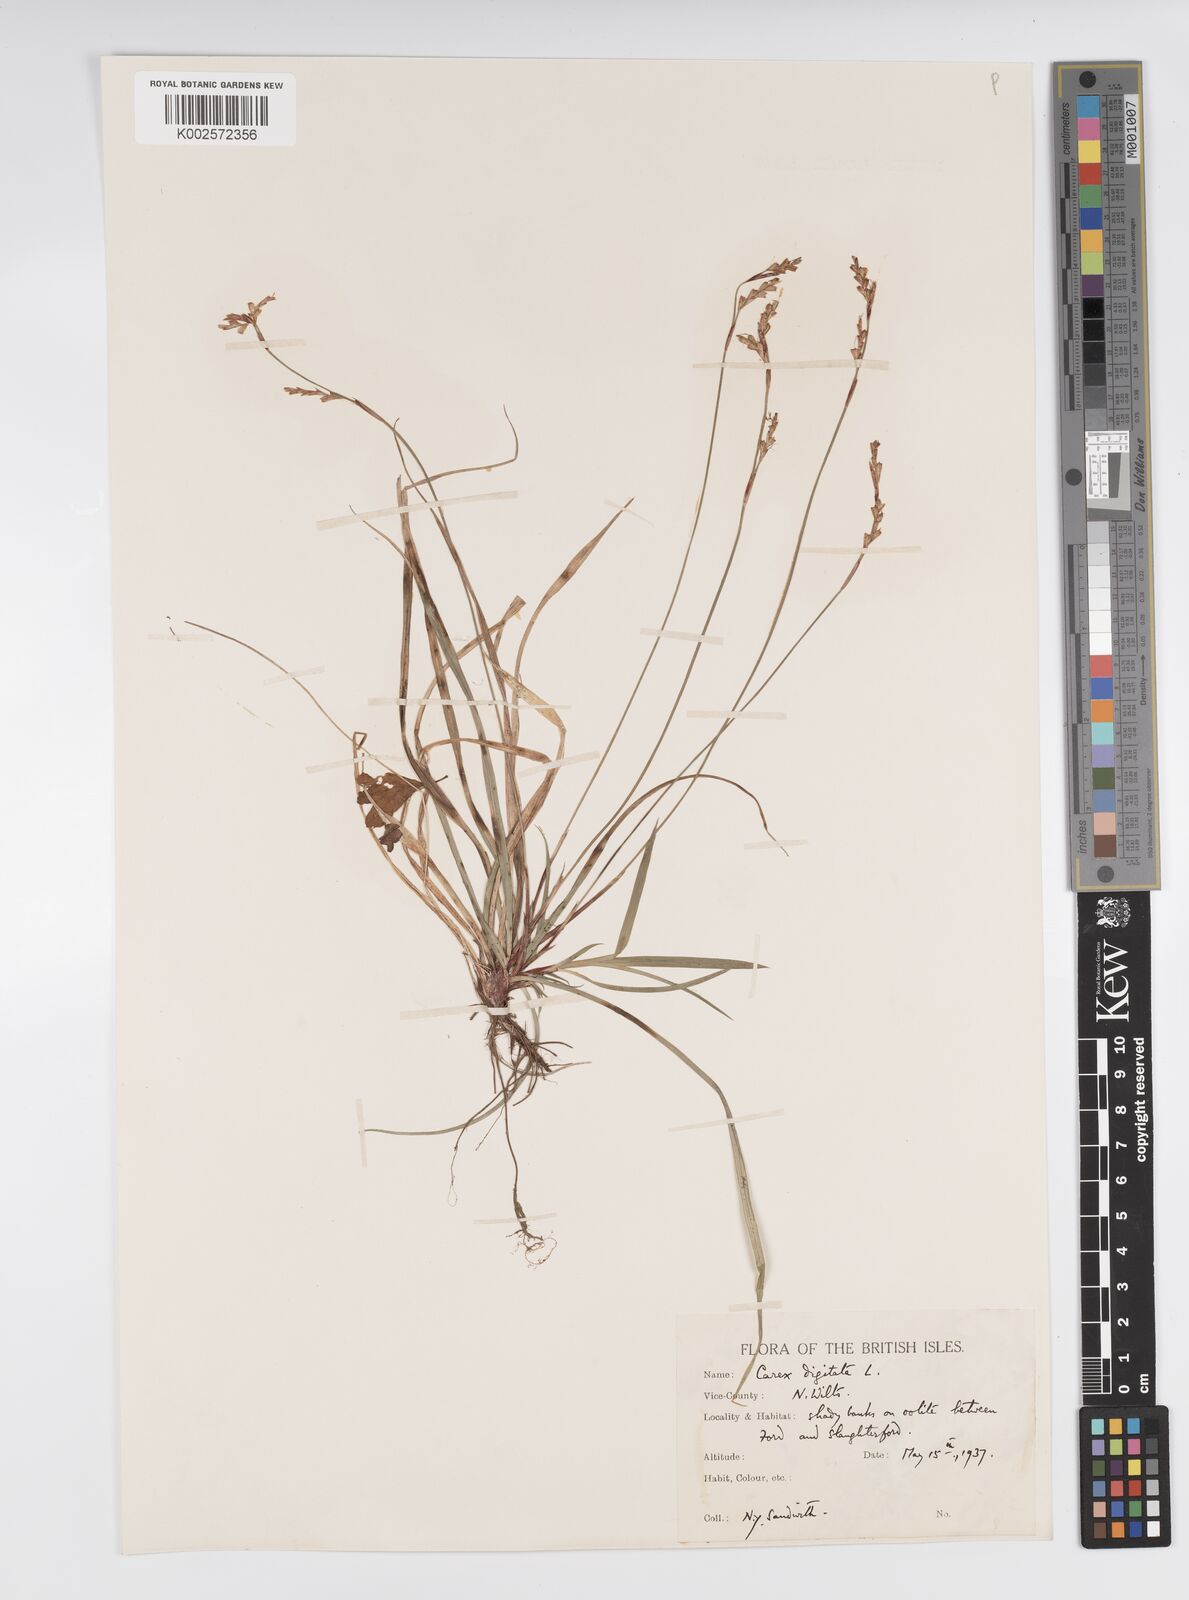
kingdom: Plantae
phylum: Tracheophyta
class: Liliopsida
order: Poales
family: Cyperaceae
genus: Carex
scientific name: Carex digitata
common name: Fingered sedge
